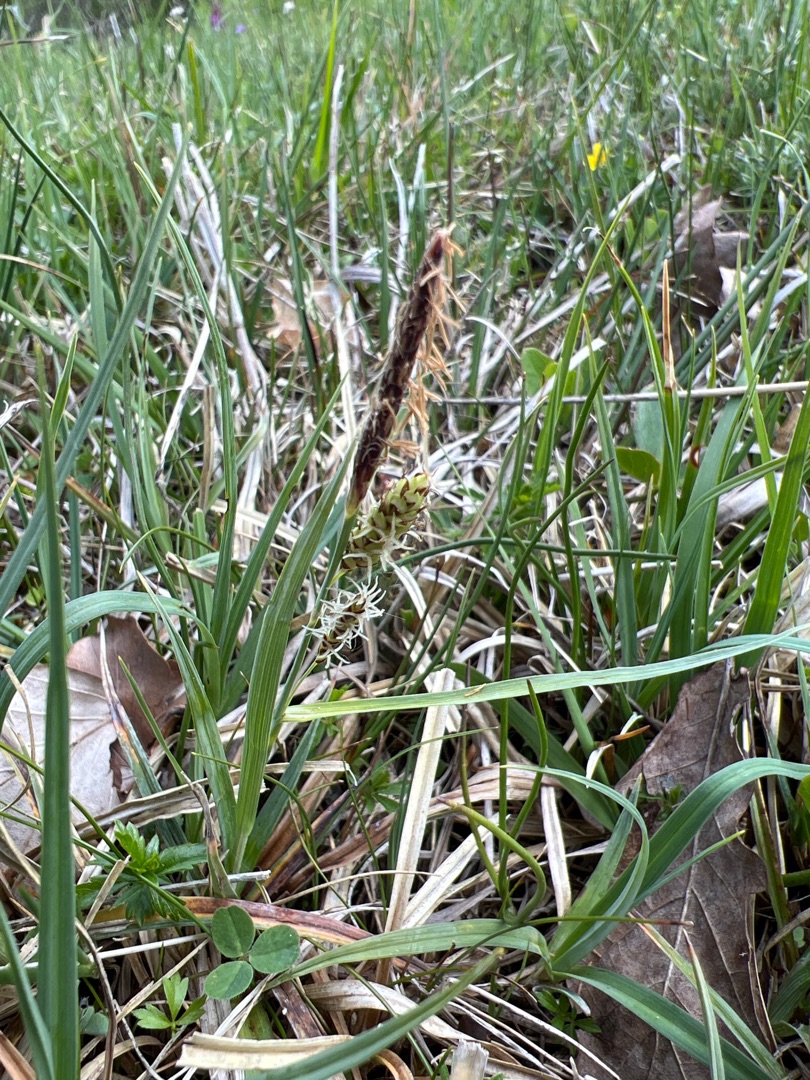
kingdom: Plantae
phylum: Tracheophyta
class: Liliopsida
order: Poales
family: Cyperaceae
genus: Carex
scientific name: Carex flacca
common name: Blågrøn star
